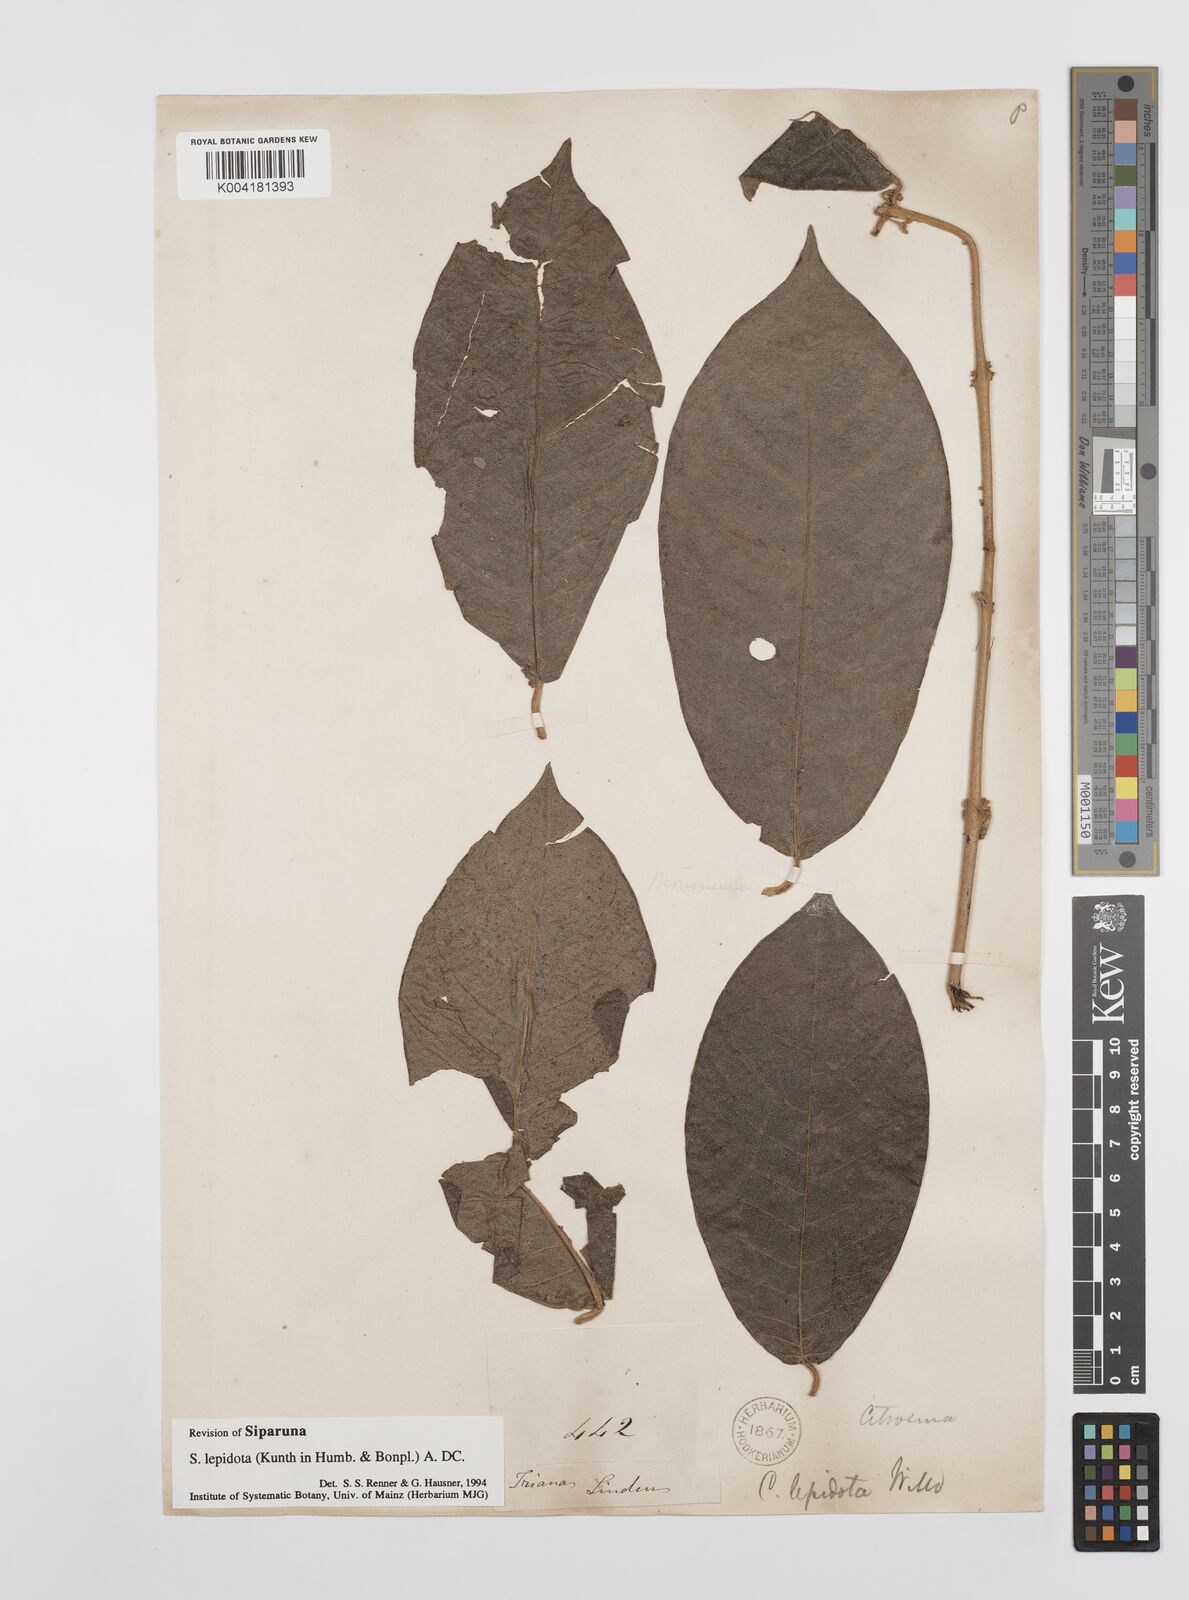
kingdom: Plantae
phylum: Tracheophyta
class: Magnoliopsida
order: Laurales
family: Siparunaceae
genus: Siparuna
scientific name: Siparuna lepidota
